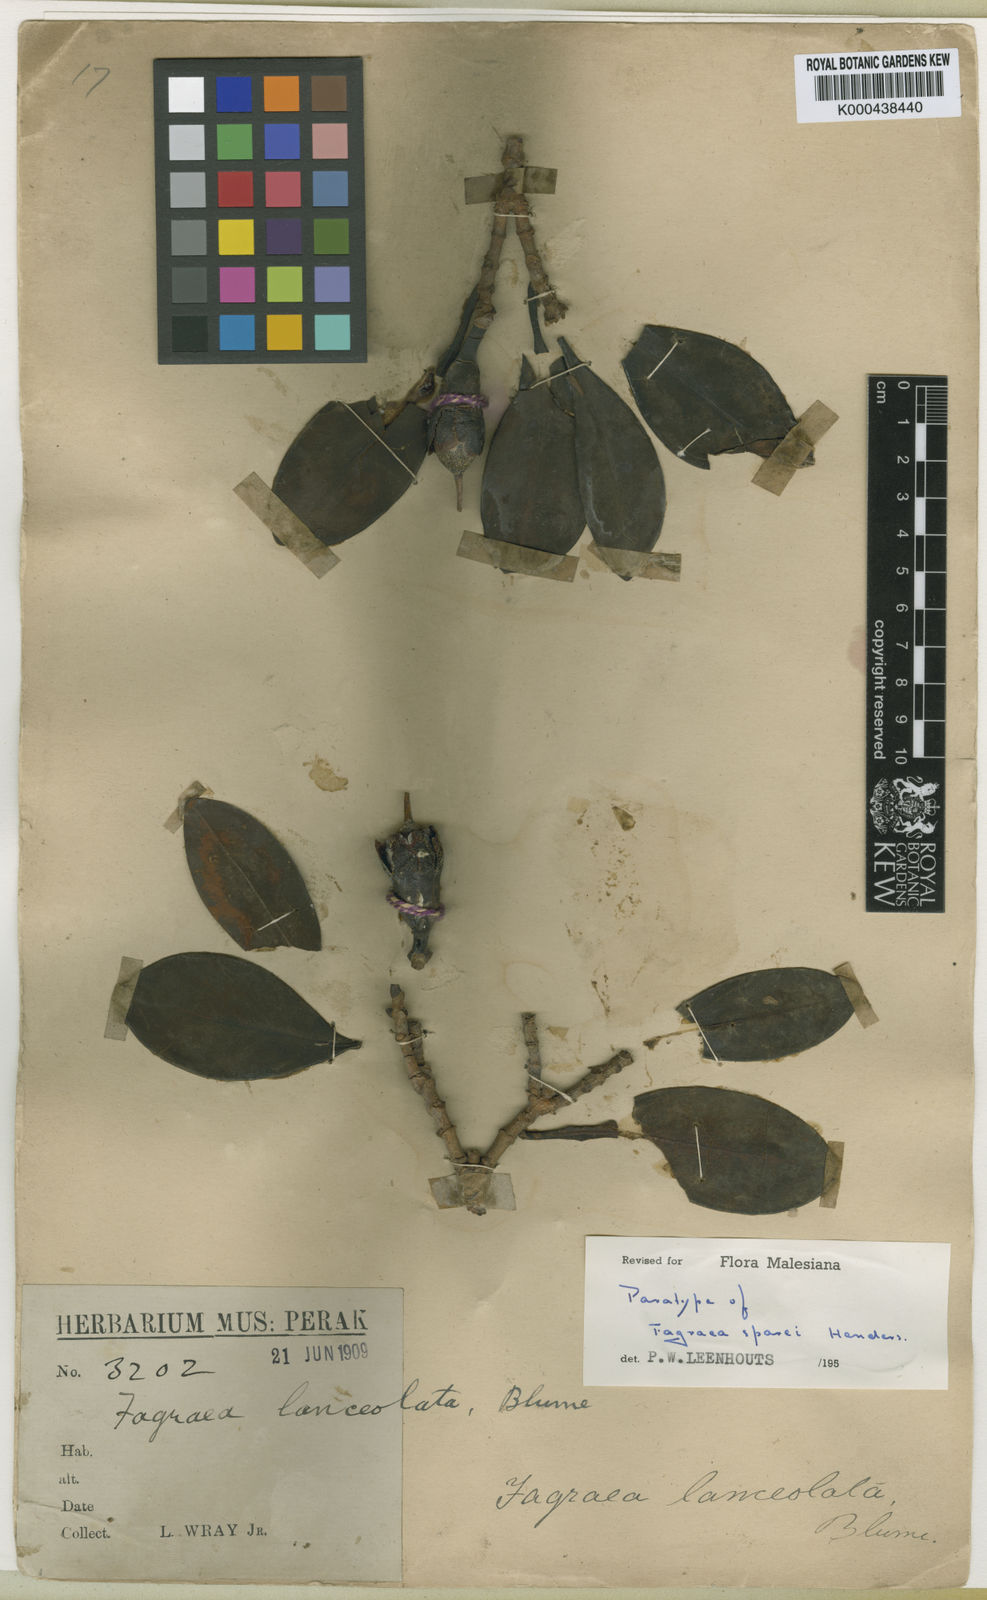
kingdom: Plantae
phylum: Tracheophyta
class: Magnoliopsida
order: Gentianales
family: Gentianaceae
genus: Fagraea
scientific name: Fagraea crassifolia
